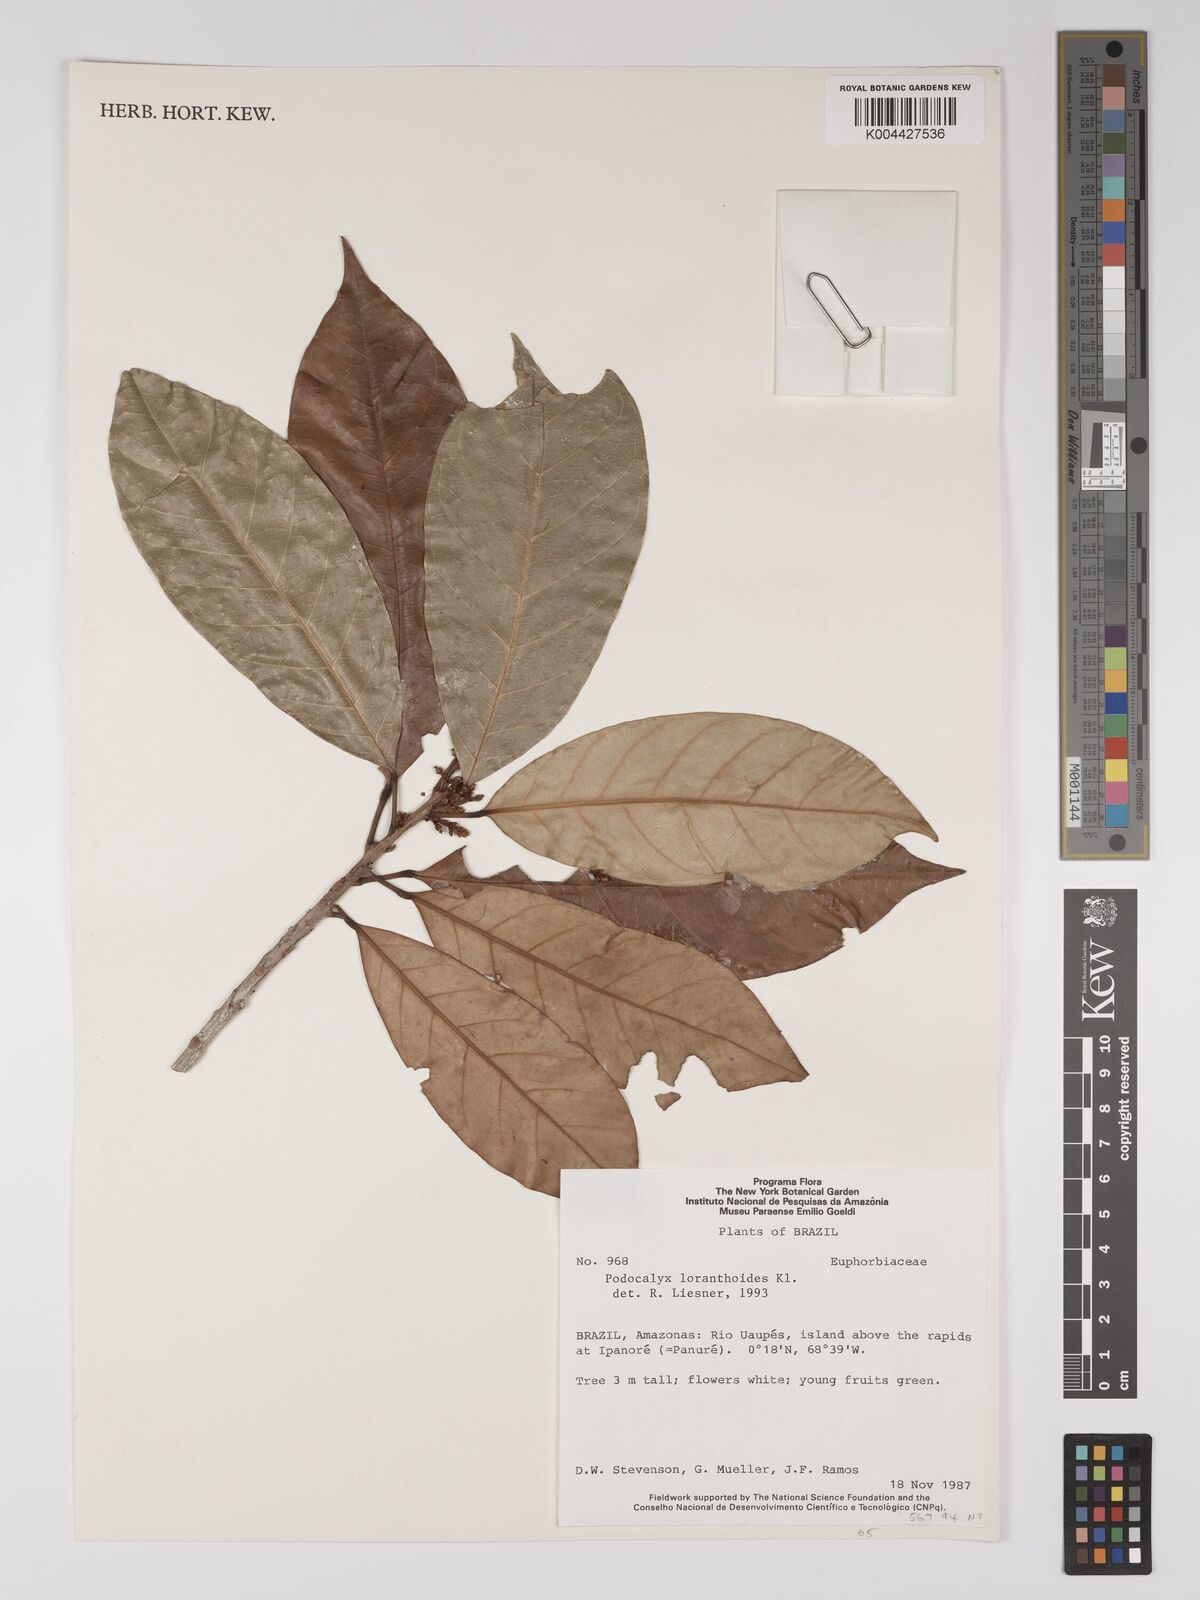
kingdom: Plantae
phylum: Tracheophyta
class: Magnoliopsida
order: Malpighiales
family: Picrodendraceae
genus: Podocalyx
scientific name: Podocalyx loranthoides
